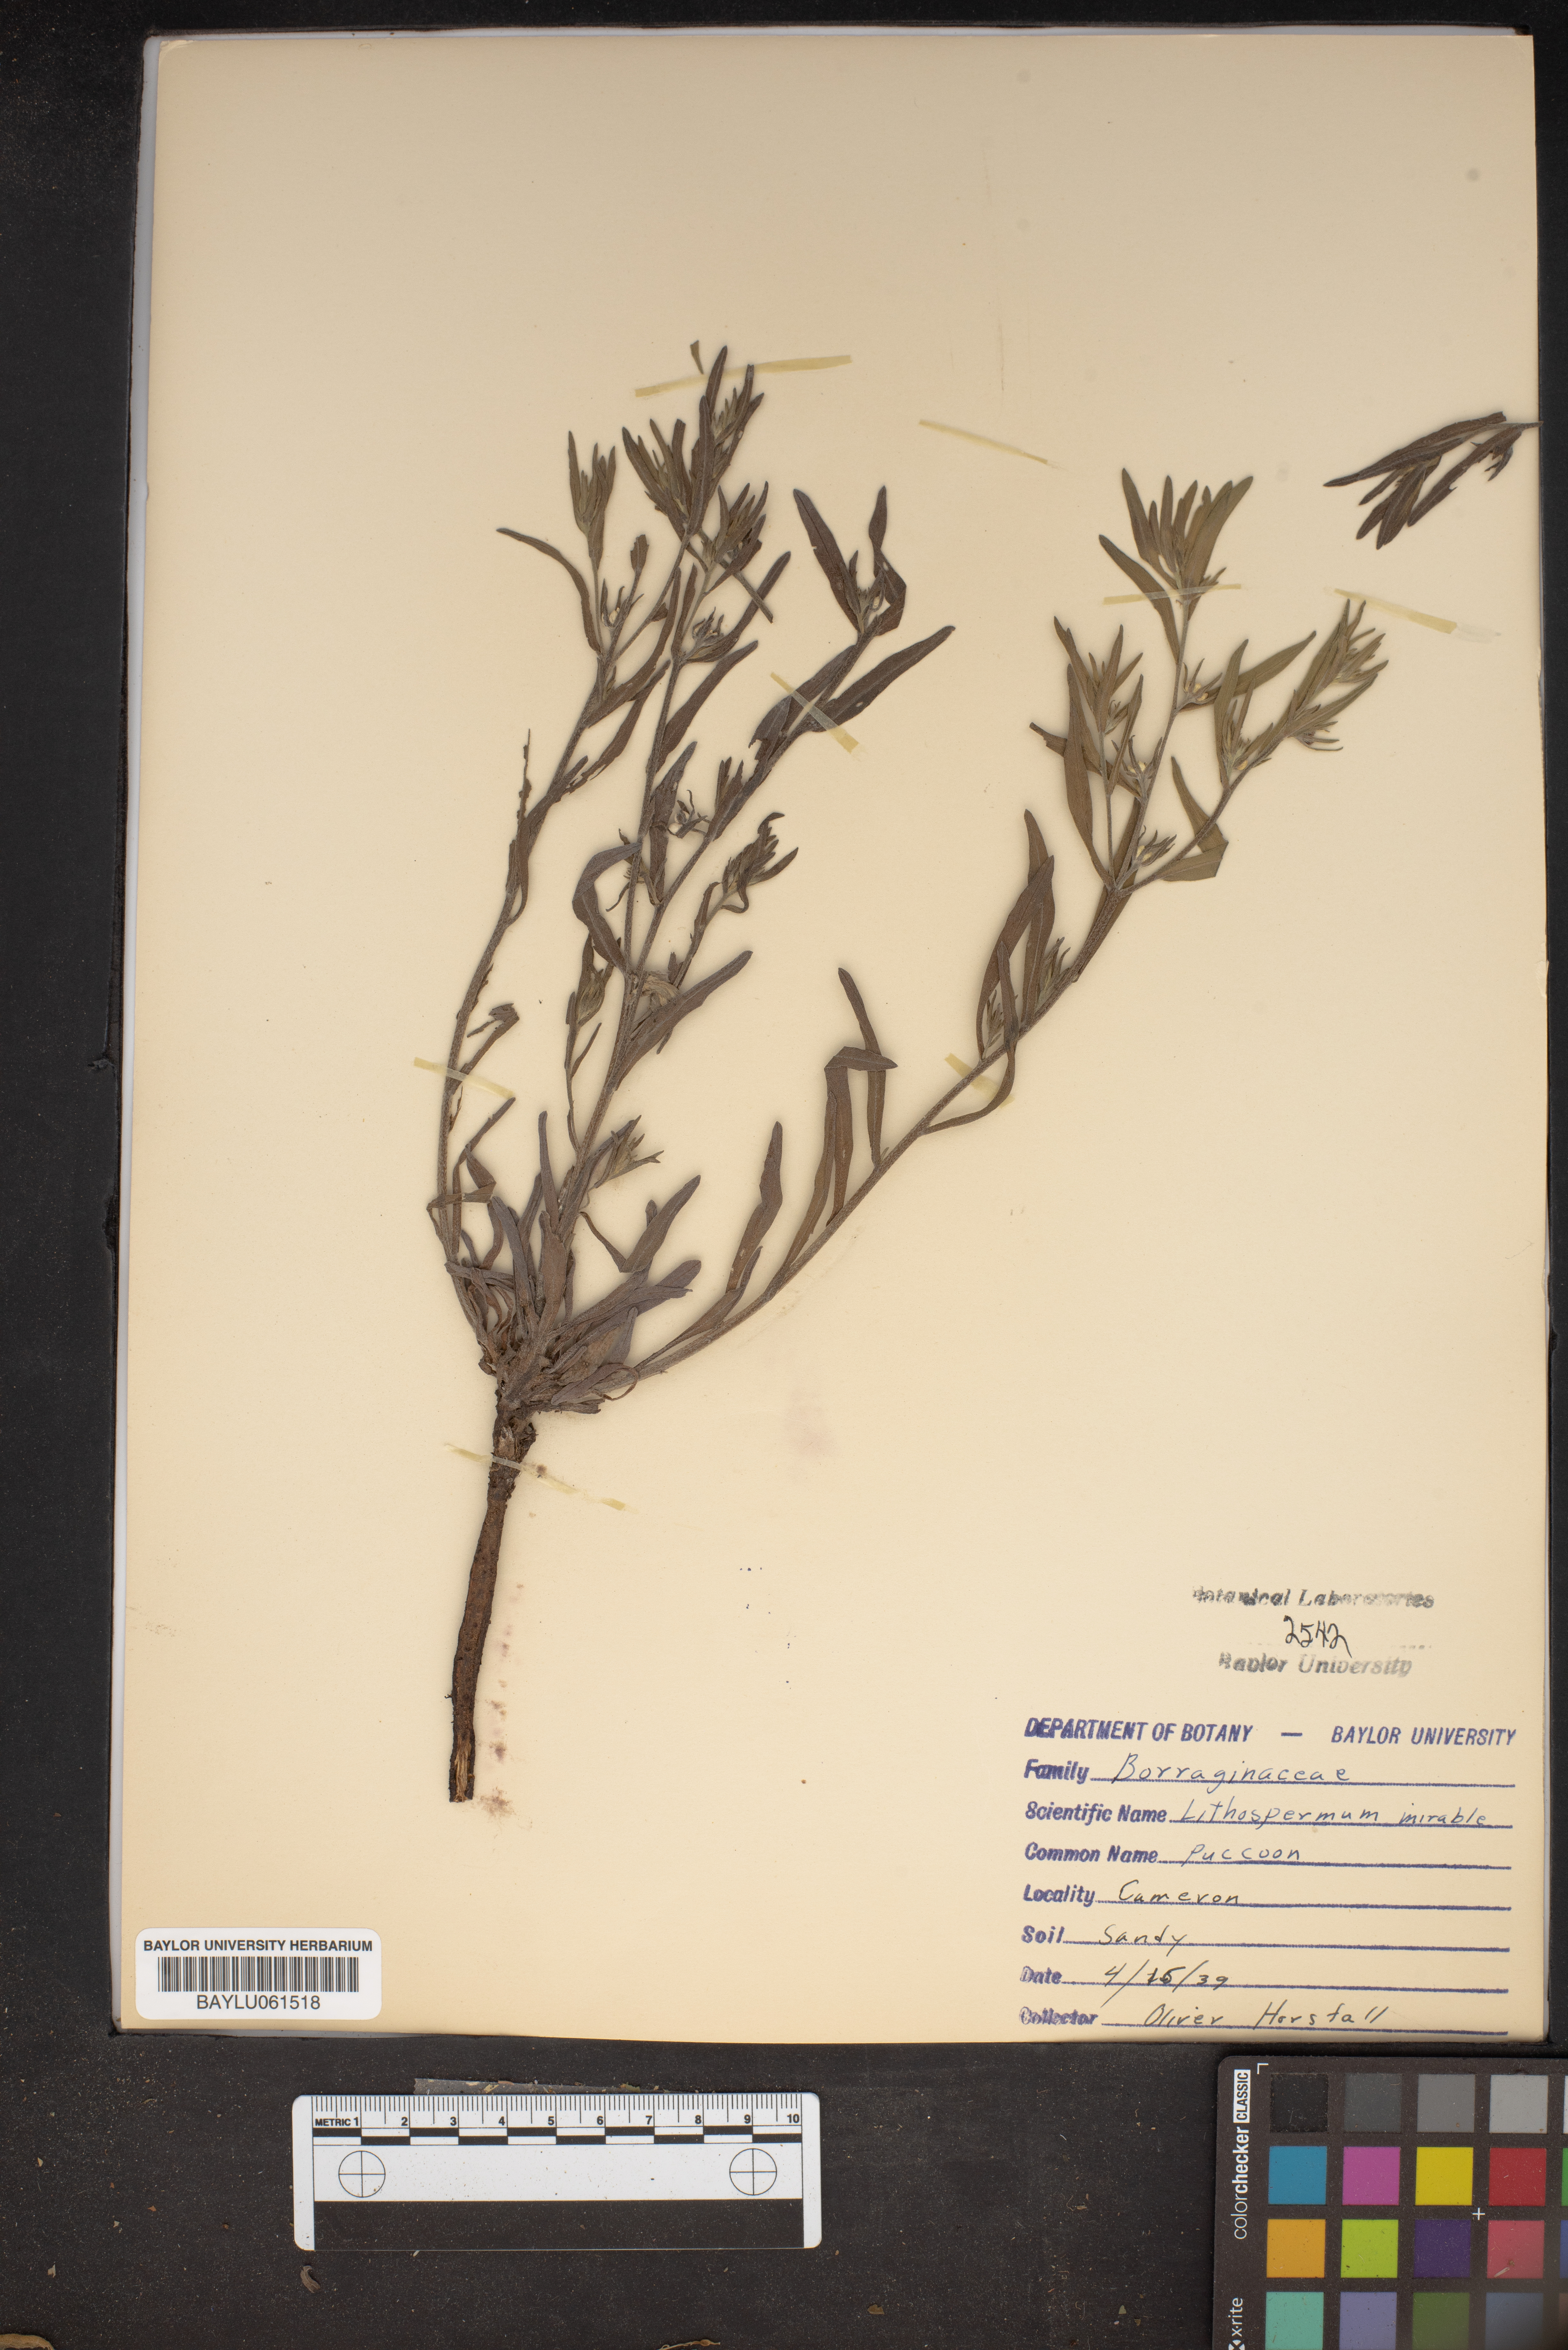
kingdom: Plantae
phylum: Tracheophyta
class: Magnoliopsida
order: Boraginales
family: Boraginaceae
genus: Lithospermum
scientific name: Lithospermum mirabile
